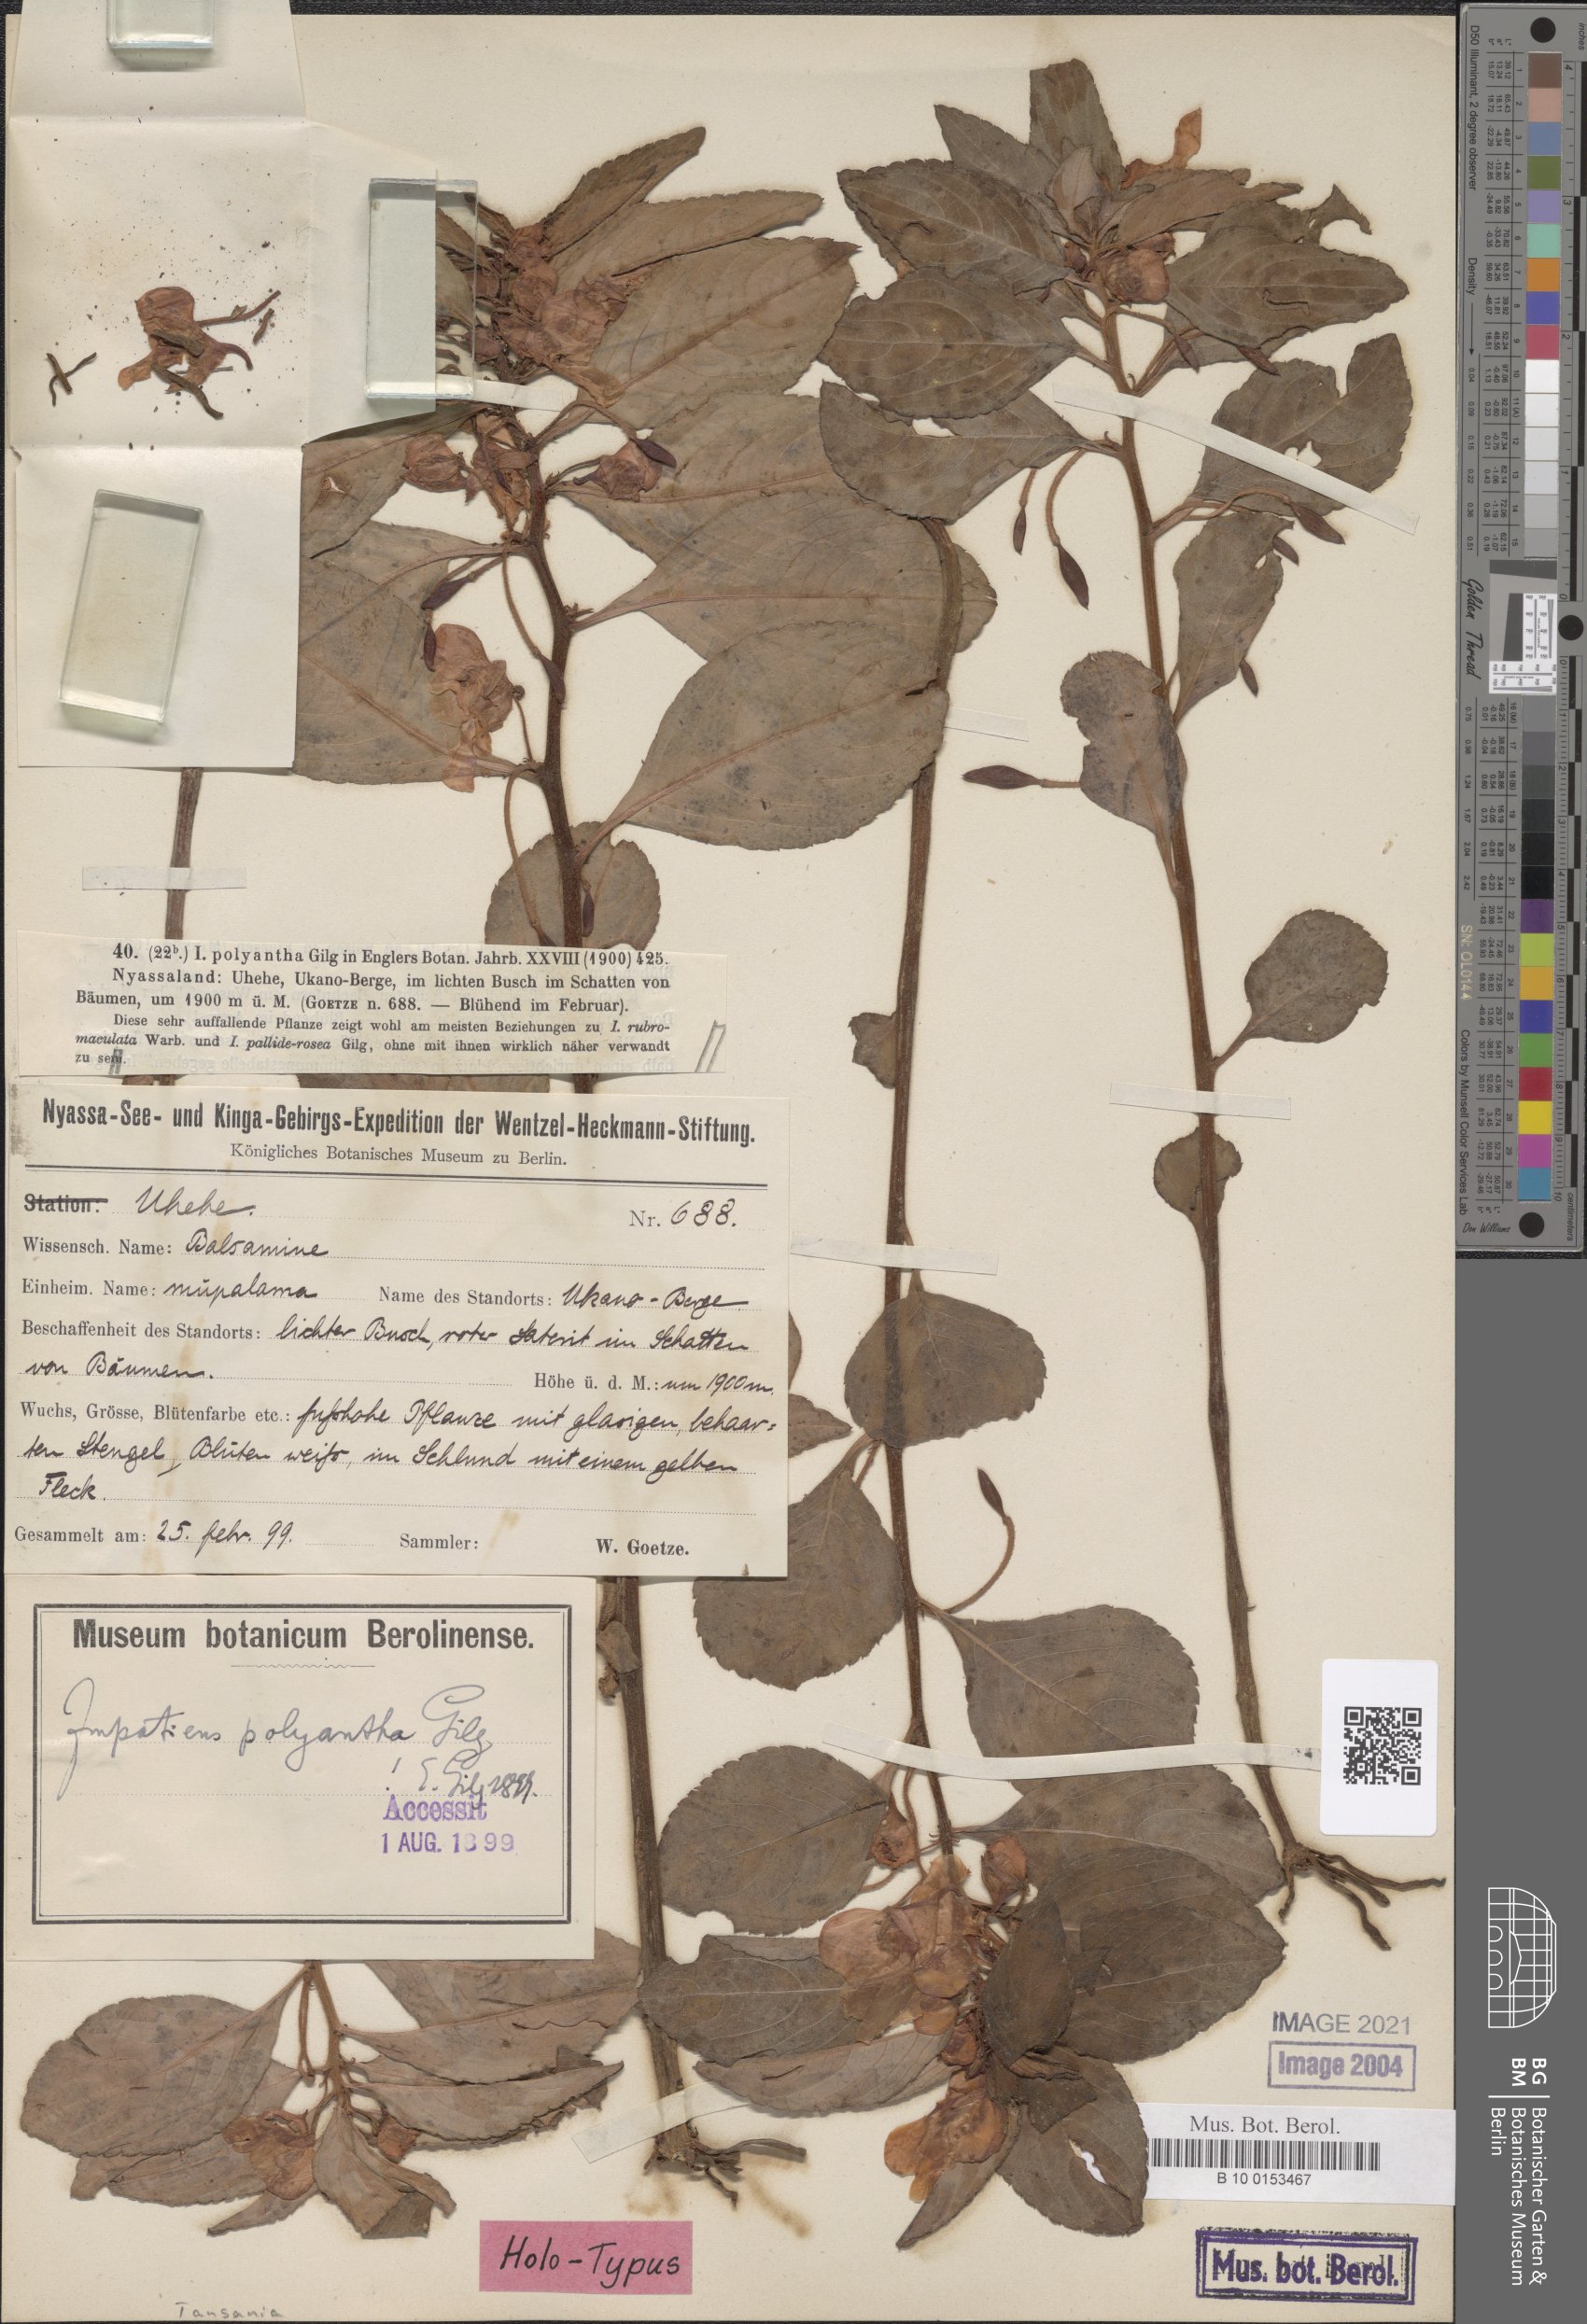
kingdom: Plantae
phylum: Tracheophyta
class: Magnoliopsida
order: Ericales
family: Balsaminaceae
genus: Impatiens
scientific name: Impatiens polyantha
